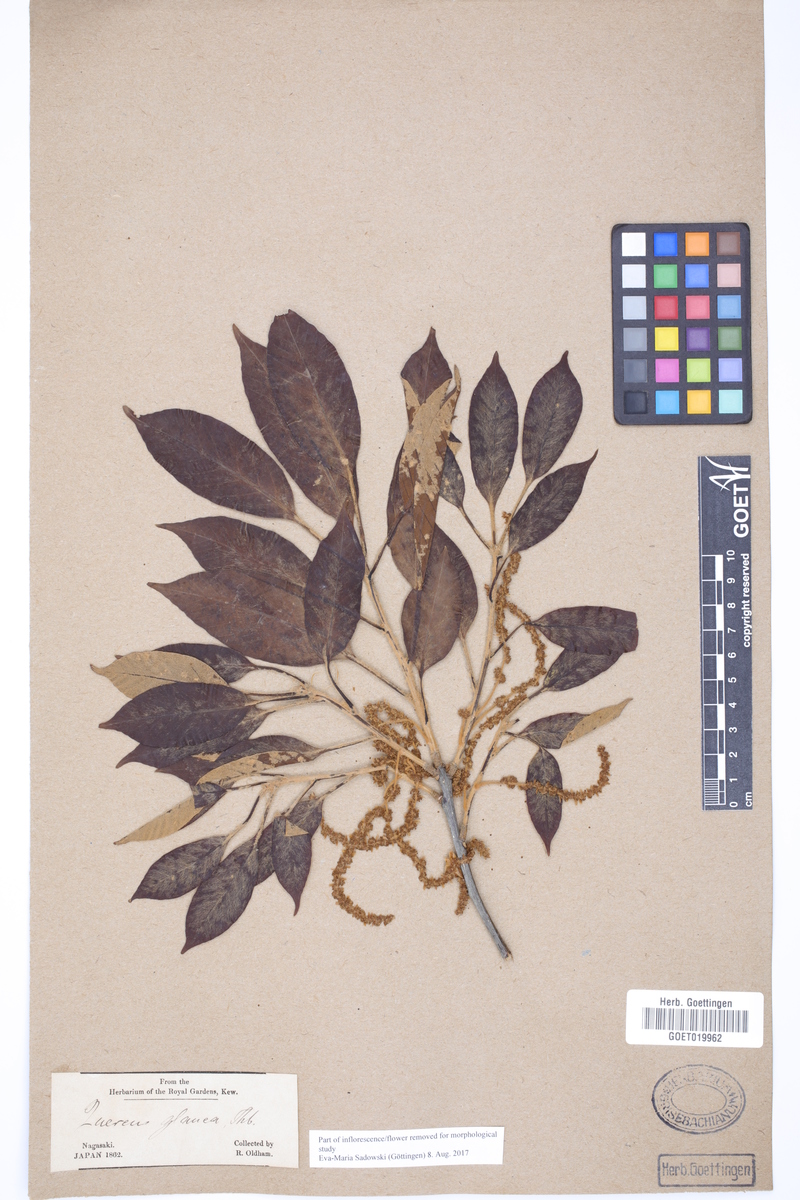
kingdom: Plantae
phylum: Tracheophyta
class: Magnoliopsida
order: Fagales
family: Fagaceae
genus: Quercus
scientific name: Quercus glauca
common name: Ring-cup oak
